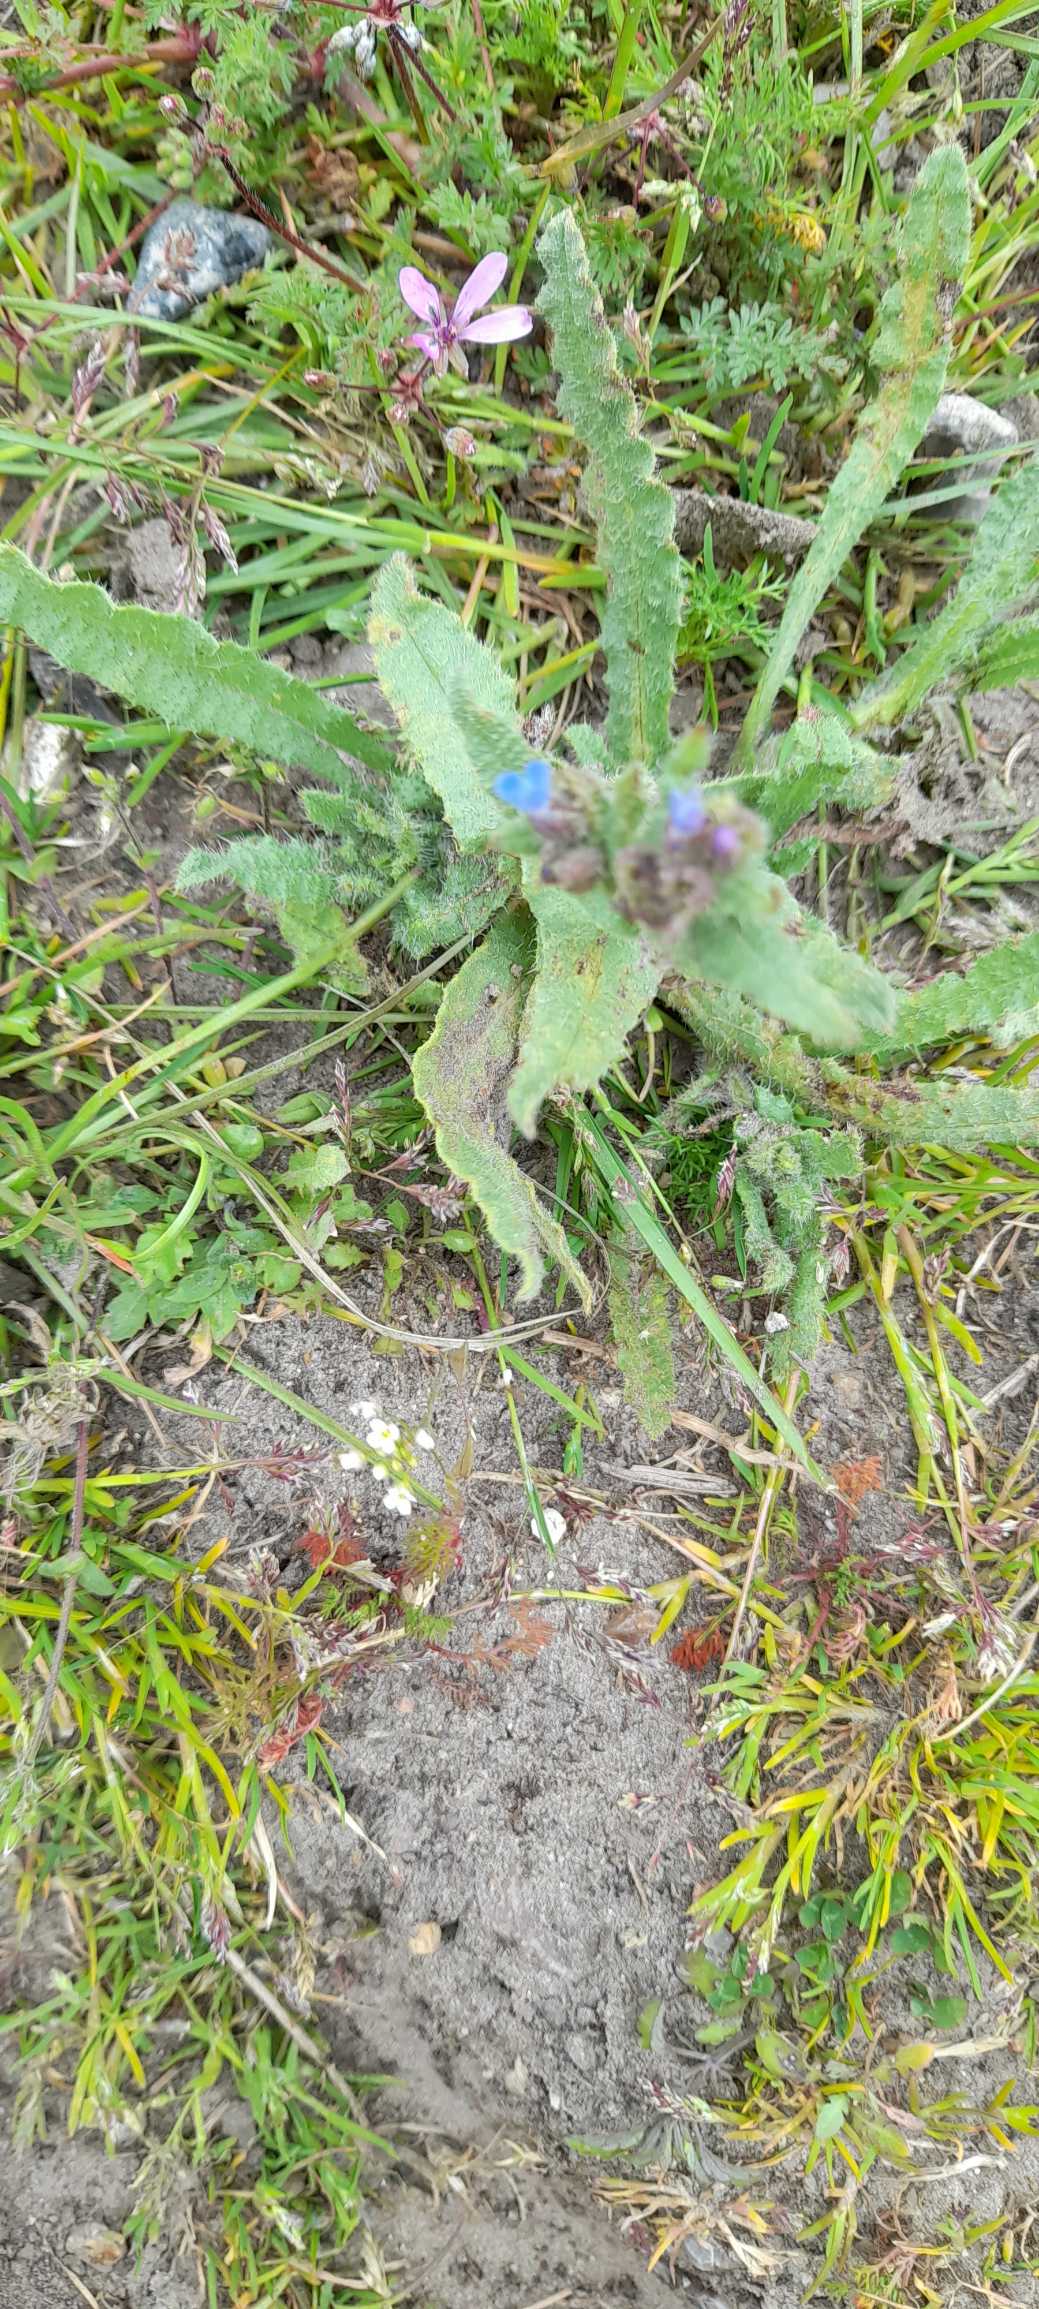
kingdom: Plantae
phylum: Tracheophyta
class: Magnoliopsida
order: Boraginales
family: Boraginaceae
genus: Lycopsis
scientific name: Lycopsis arvensis
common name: Krumhals
